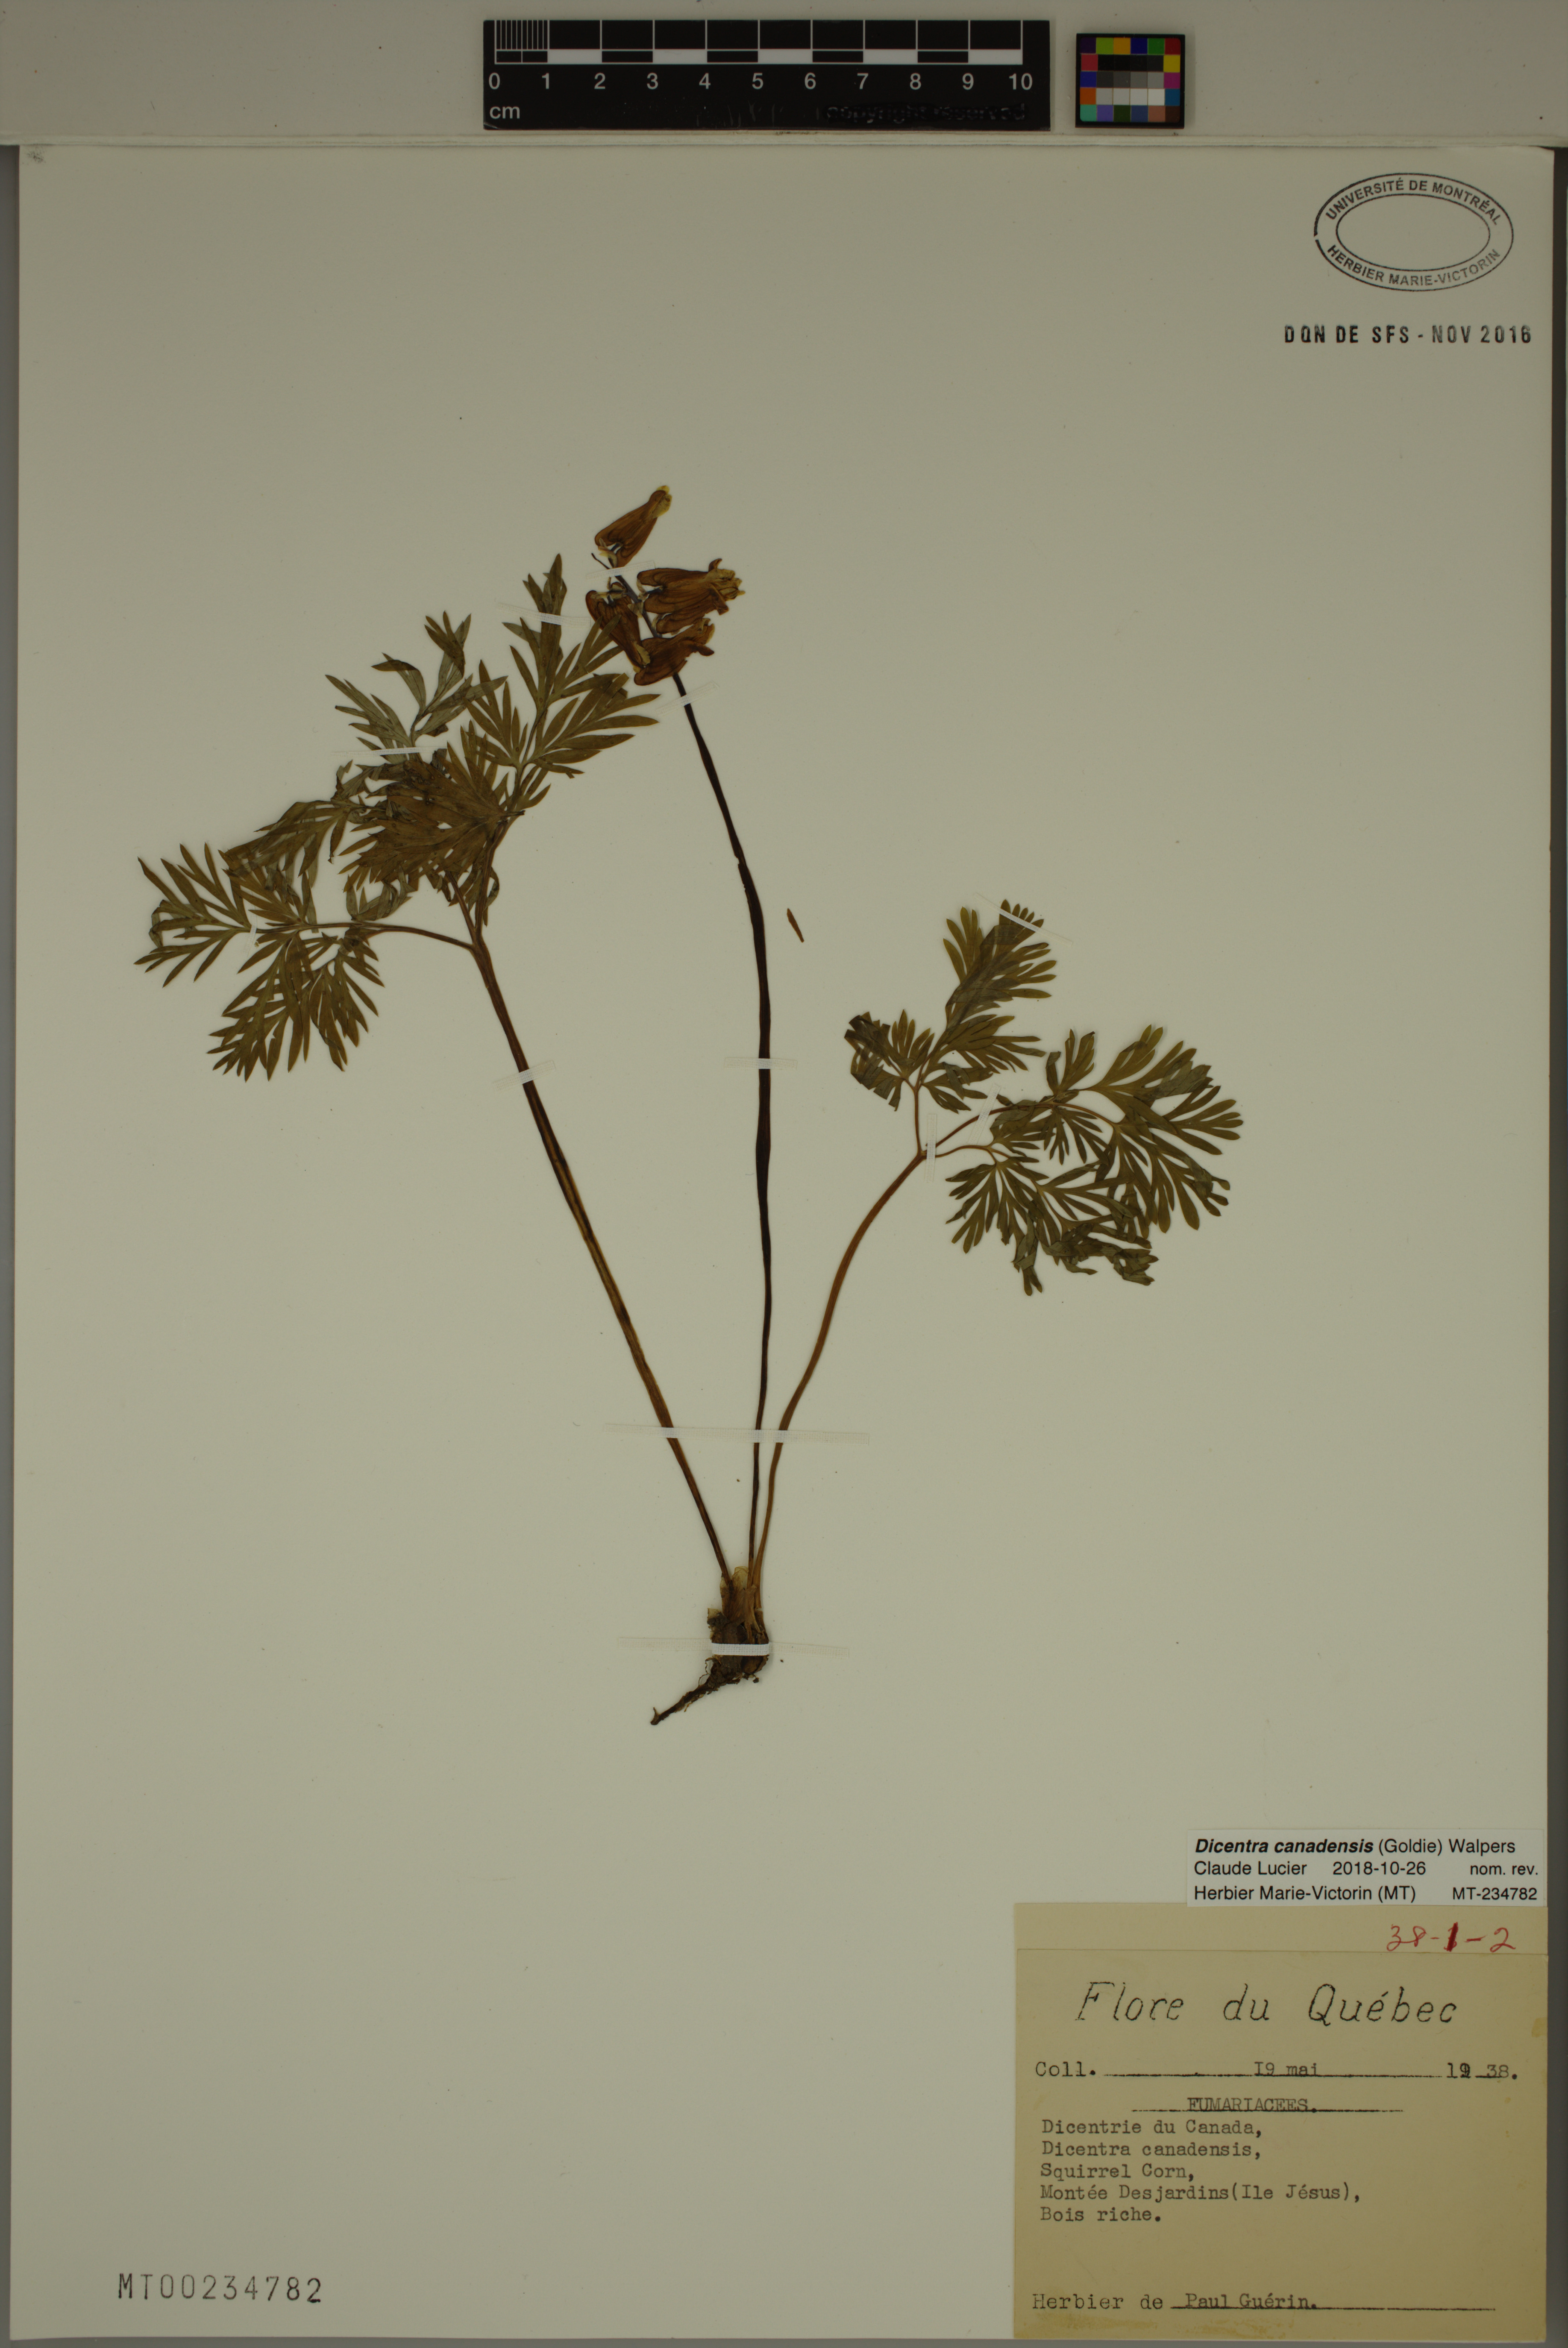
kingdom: Plantae
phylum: Tracheophyta
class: Magnoliopsida
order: Ranunculales
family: Papaveraceae
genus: Dicentra
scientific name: Dicentra canadensis
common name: Squirrel-corn
